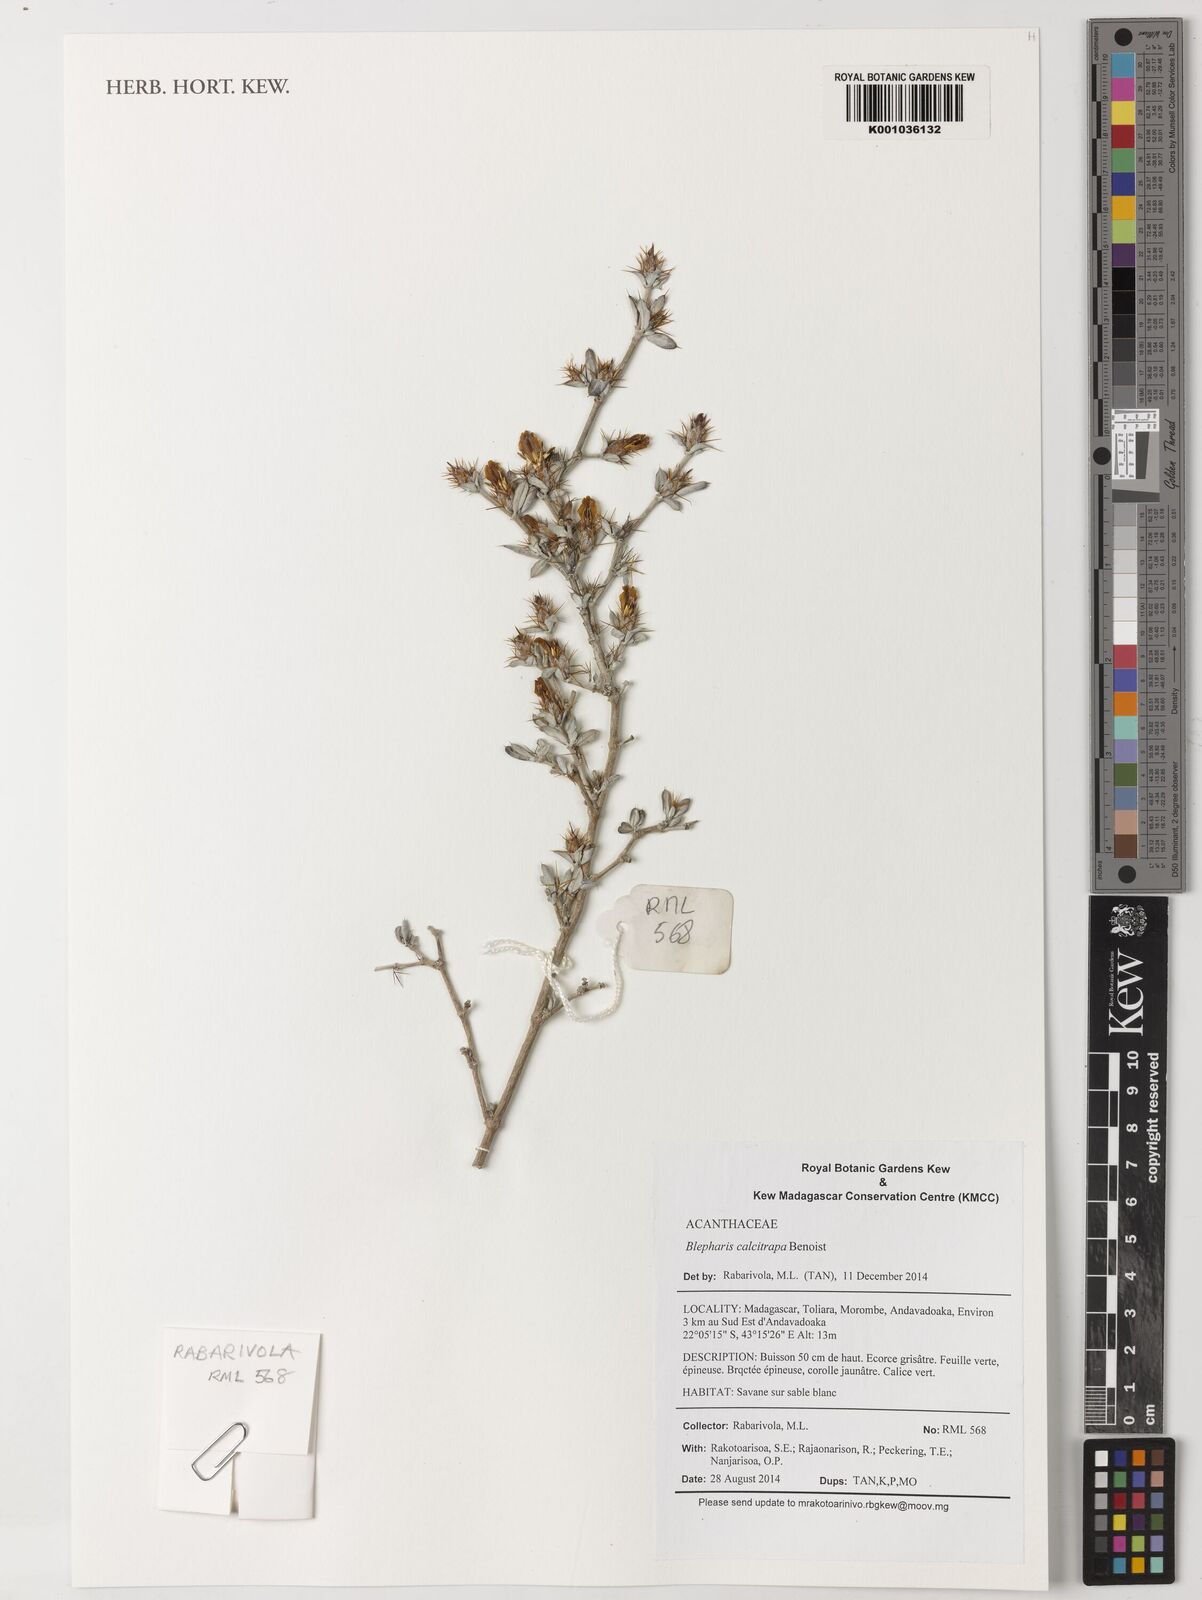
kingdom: Plantae
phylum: Tracheophyta
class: Magnoliopsida
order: Lamiales
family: Acanthaceae
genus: Blepharis
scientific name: Blepharis calcitrapa
